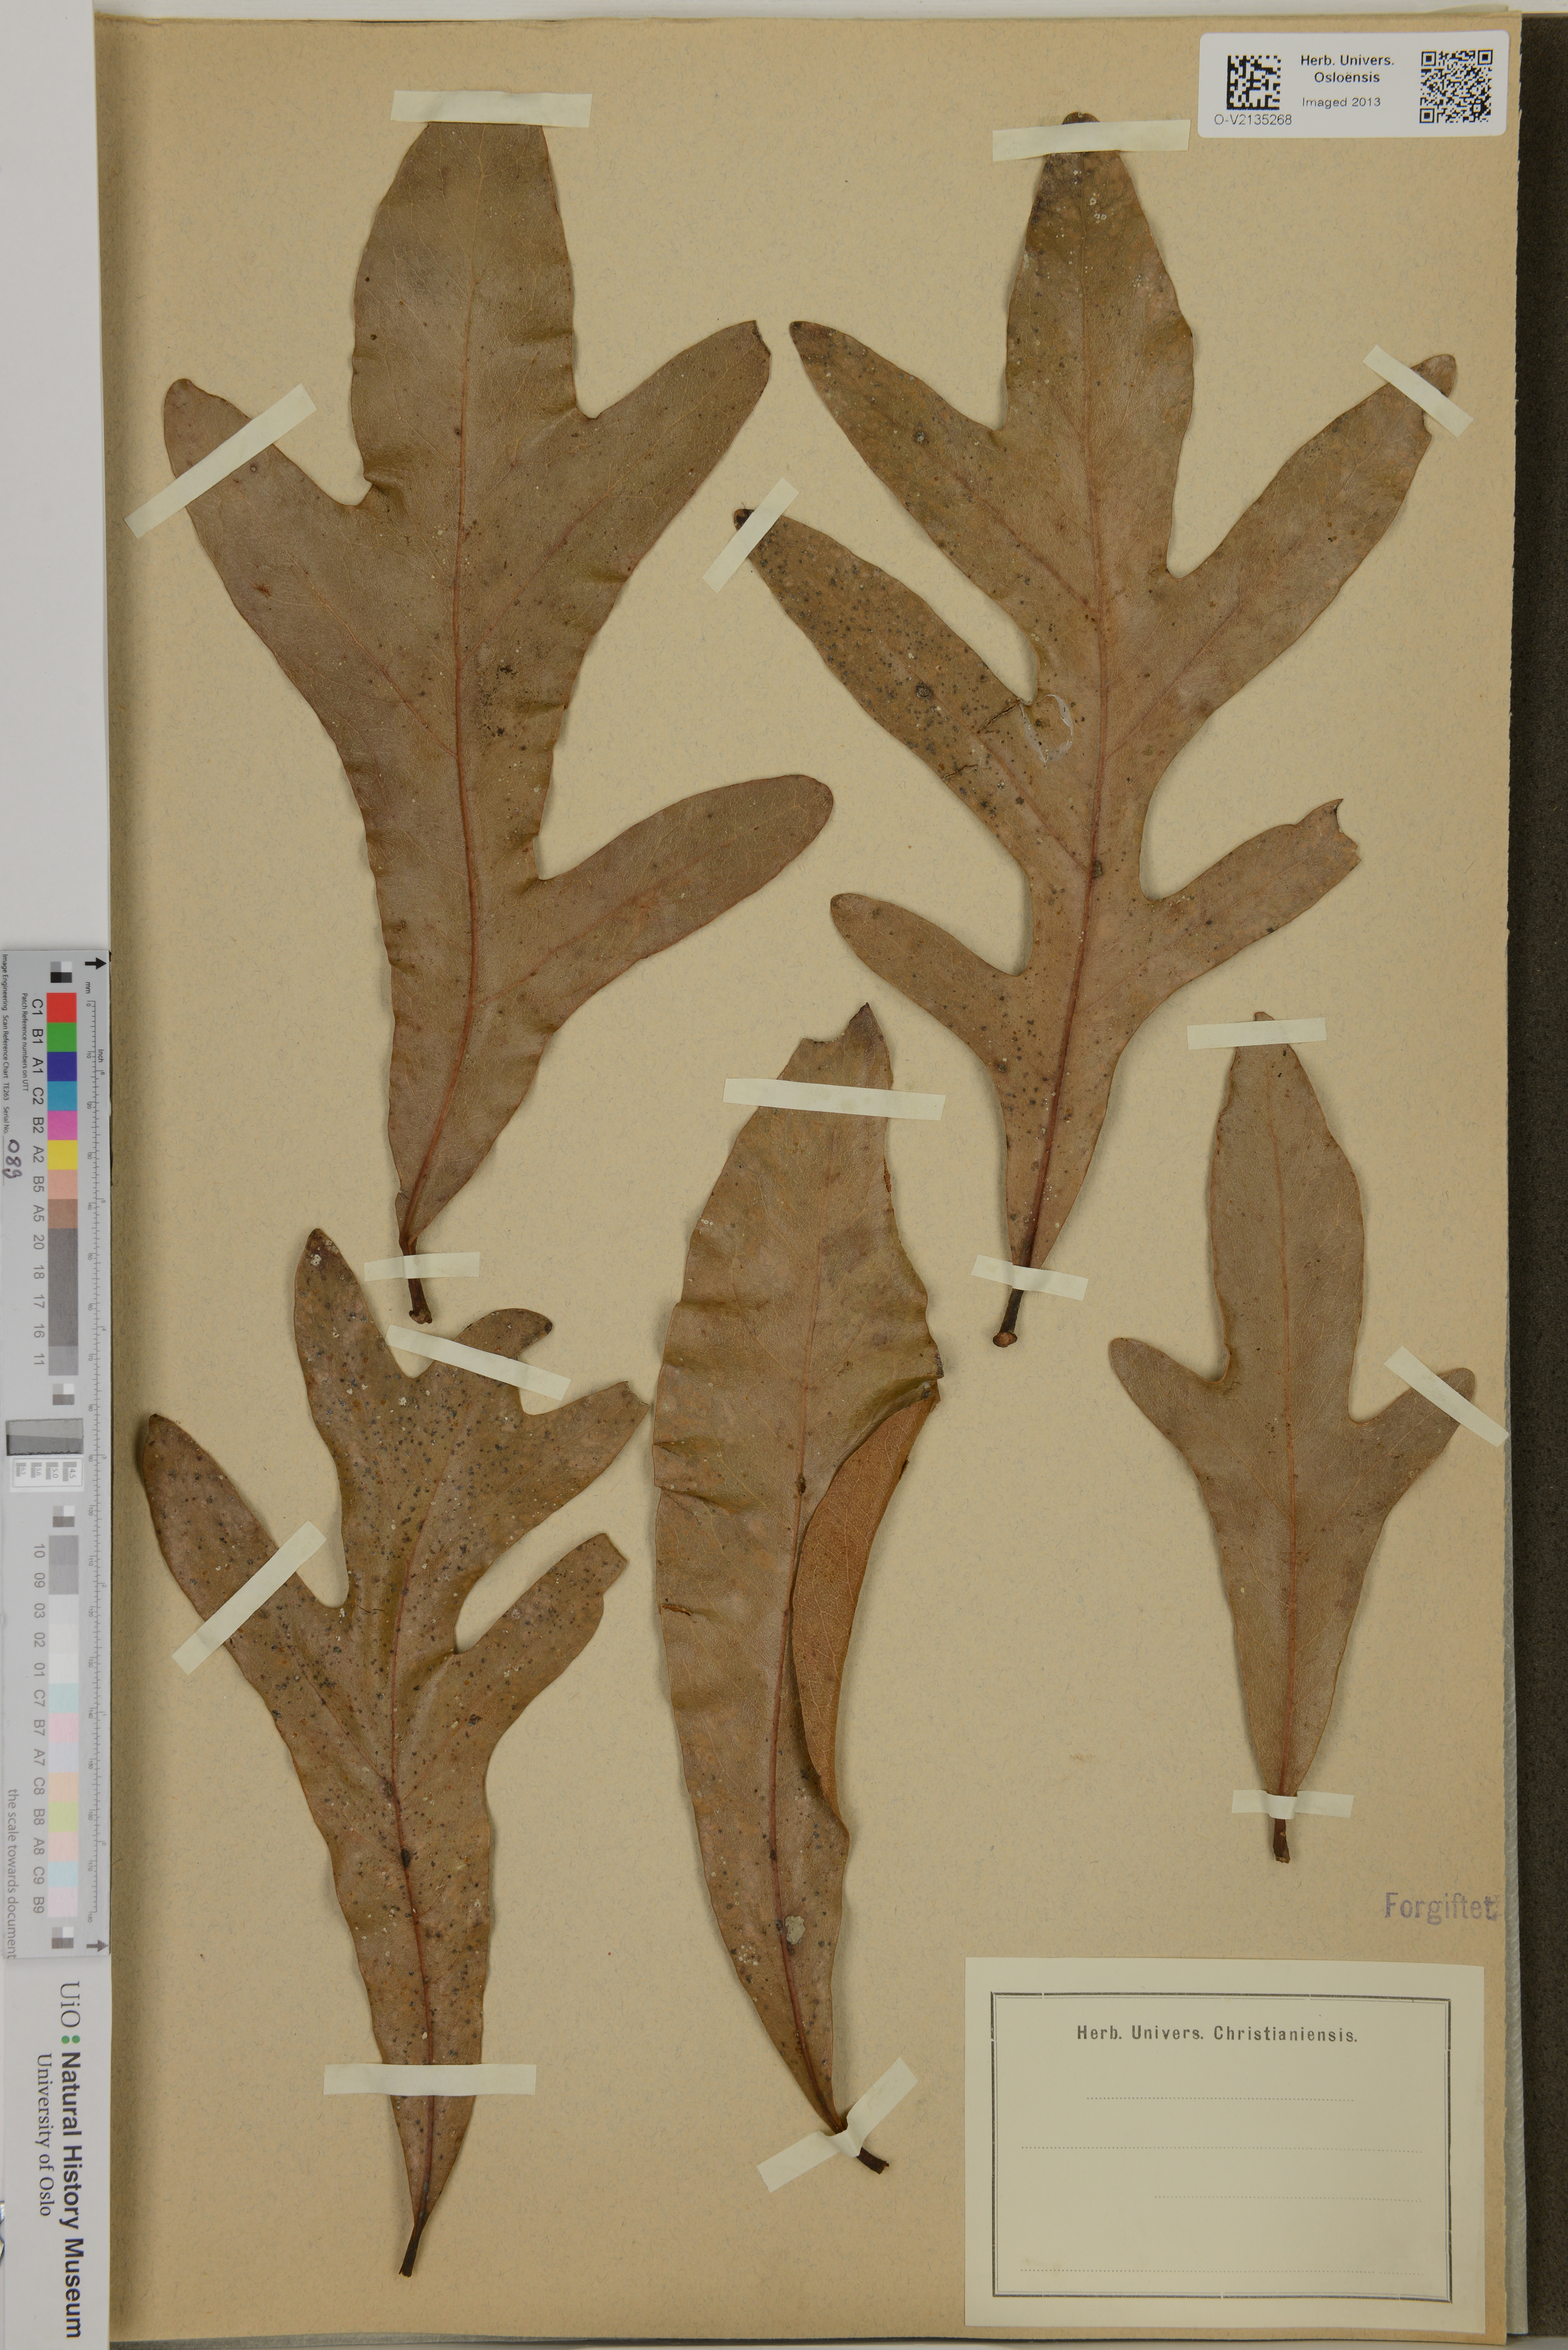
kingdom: Plantae
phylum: Tracheophyta
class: Magnoliopsida
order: Proteales
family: Proteaceae
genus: Stenocarpus
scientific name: Stenocarpus cunninghamii
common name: Little wheelbush
